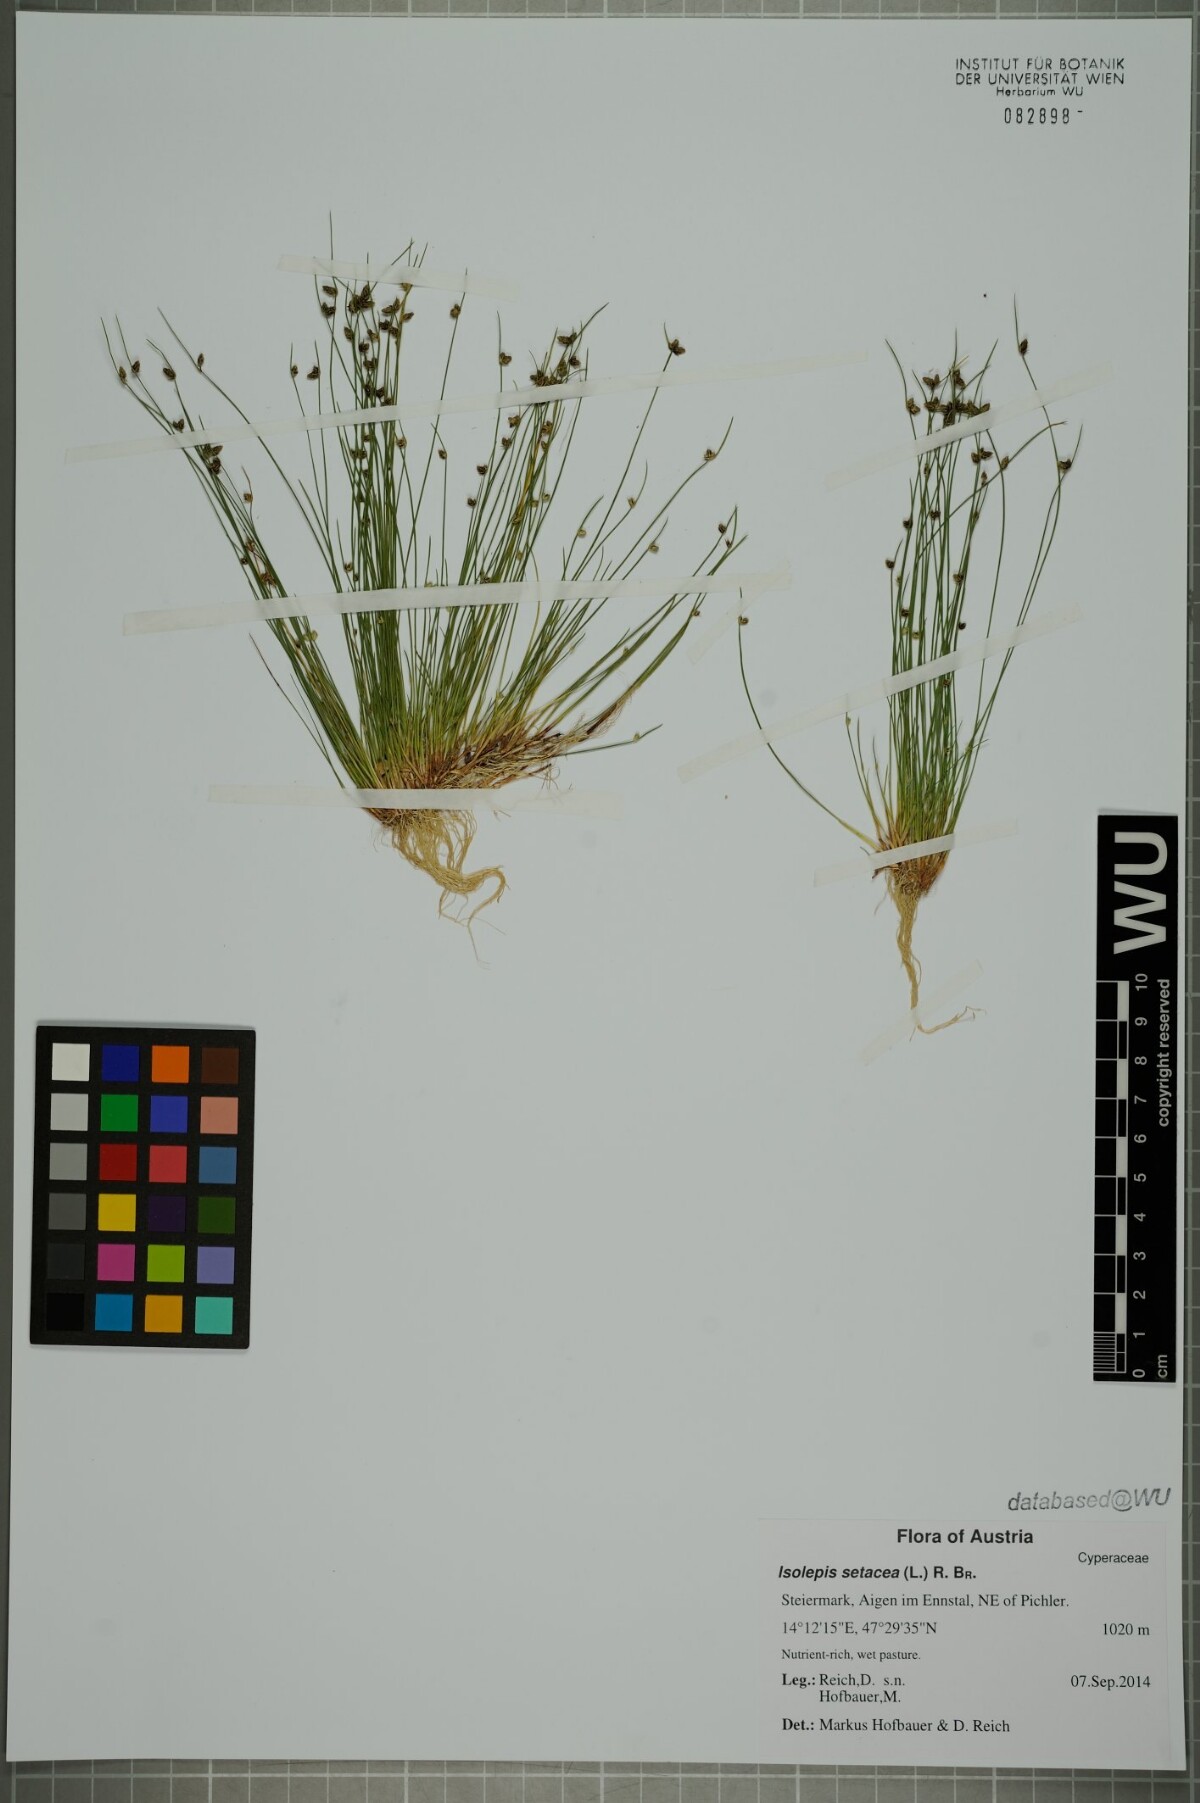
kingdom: Plantae
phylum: Tracheophyta
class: Liliopsida
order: Poales
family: Cyperaceae
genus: Isolepis
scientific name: Isolepis setacea
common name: Bristle club-rush
